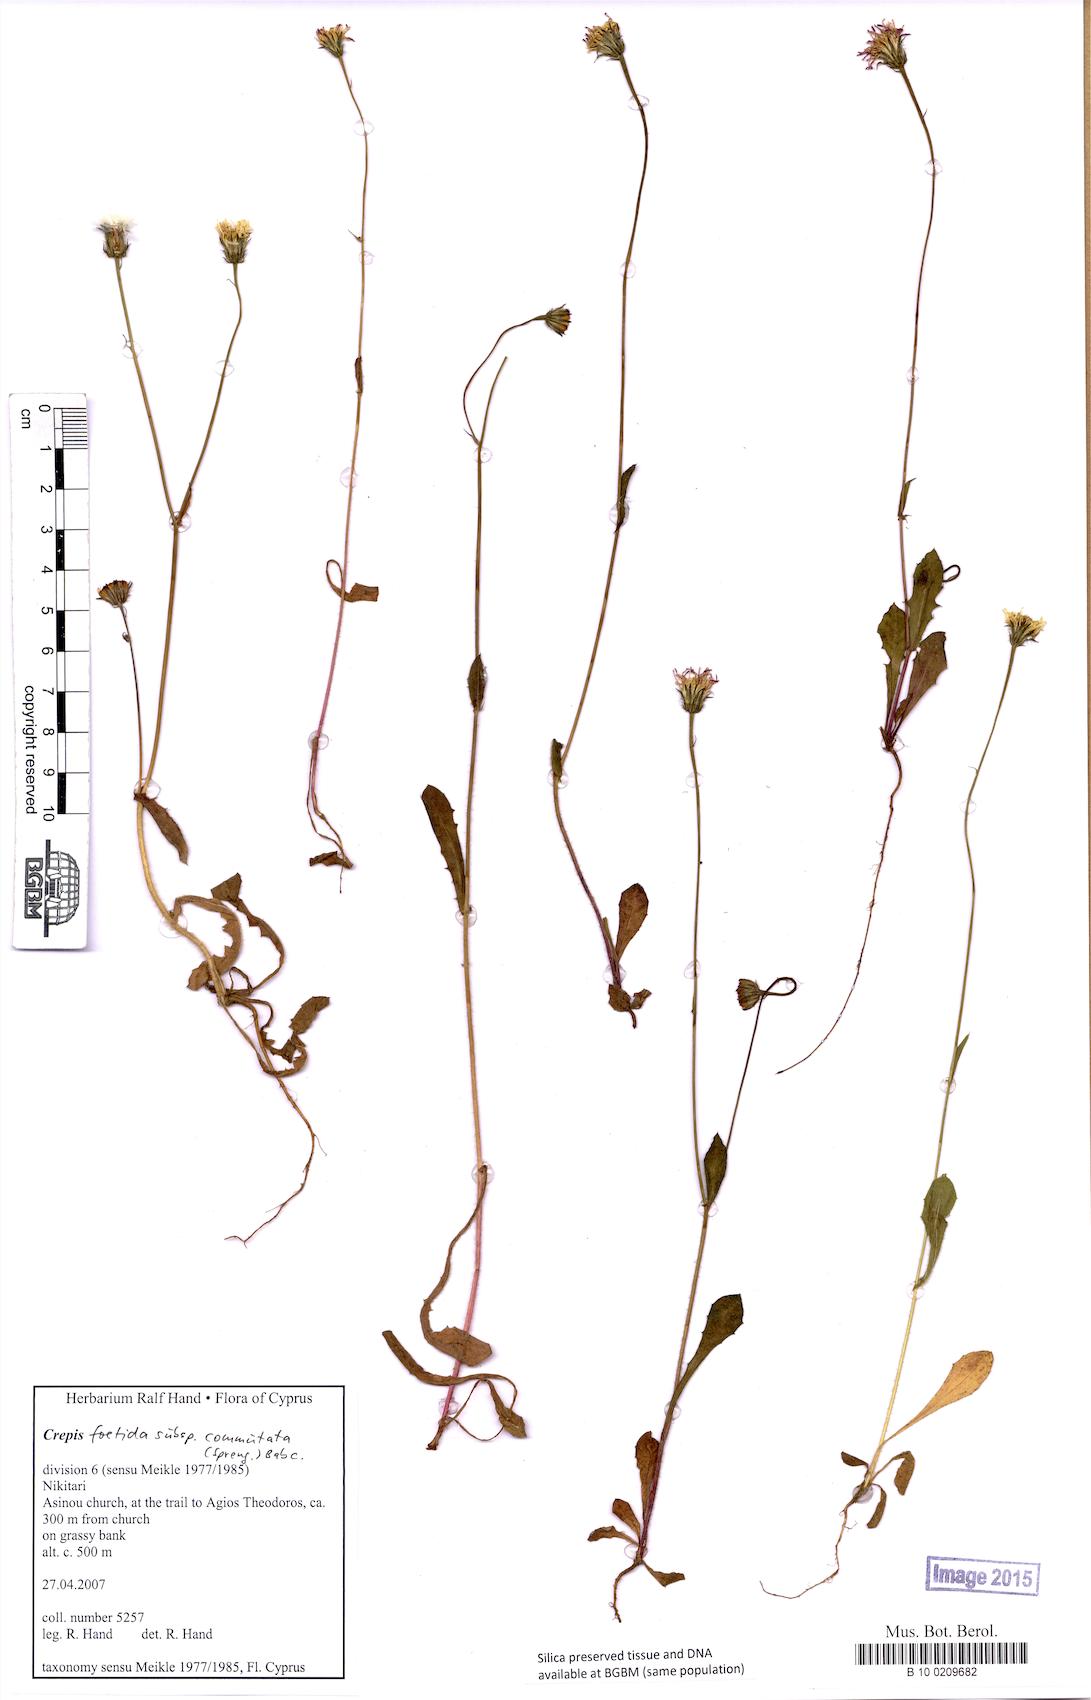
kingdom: Plantae
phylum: Tracheophyta
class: Magnoliopsida
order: Asterales
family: Asteraceae
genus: Crepis
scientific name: Crepis commutata
